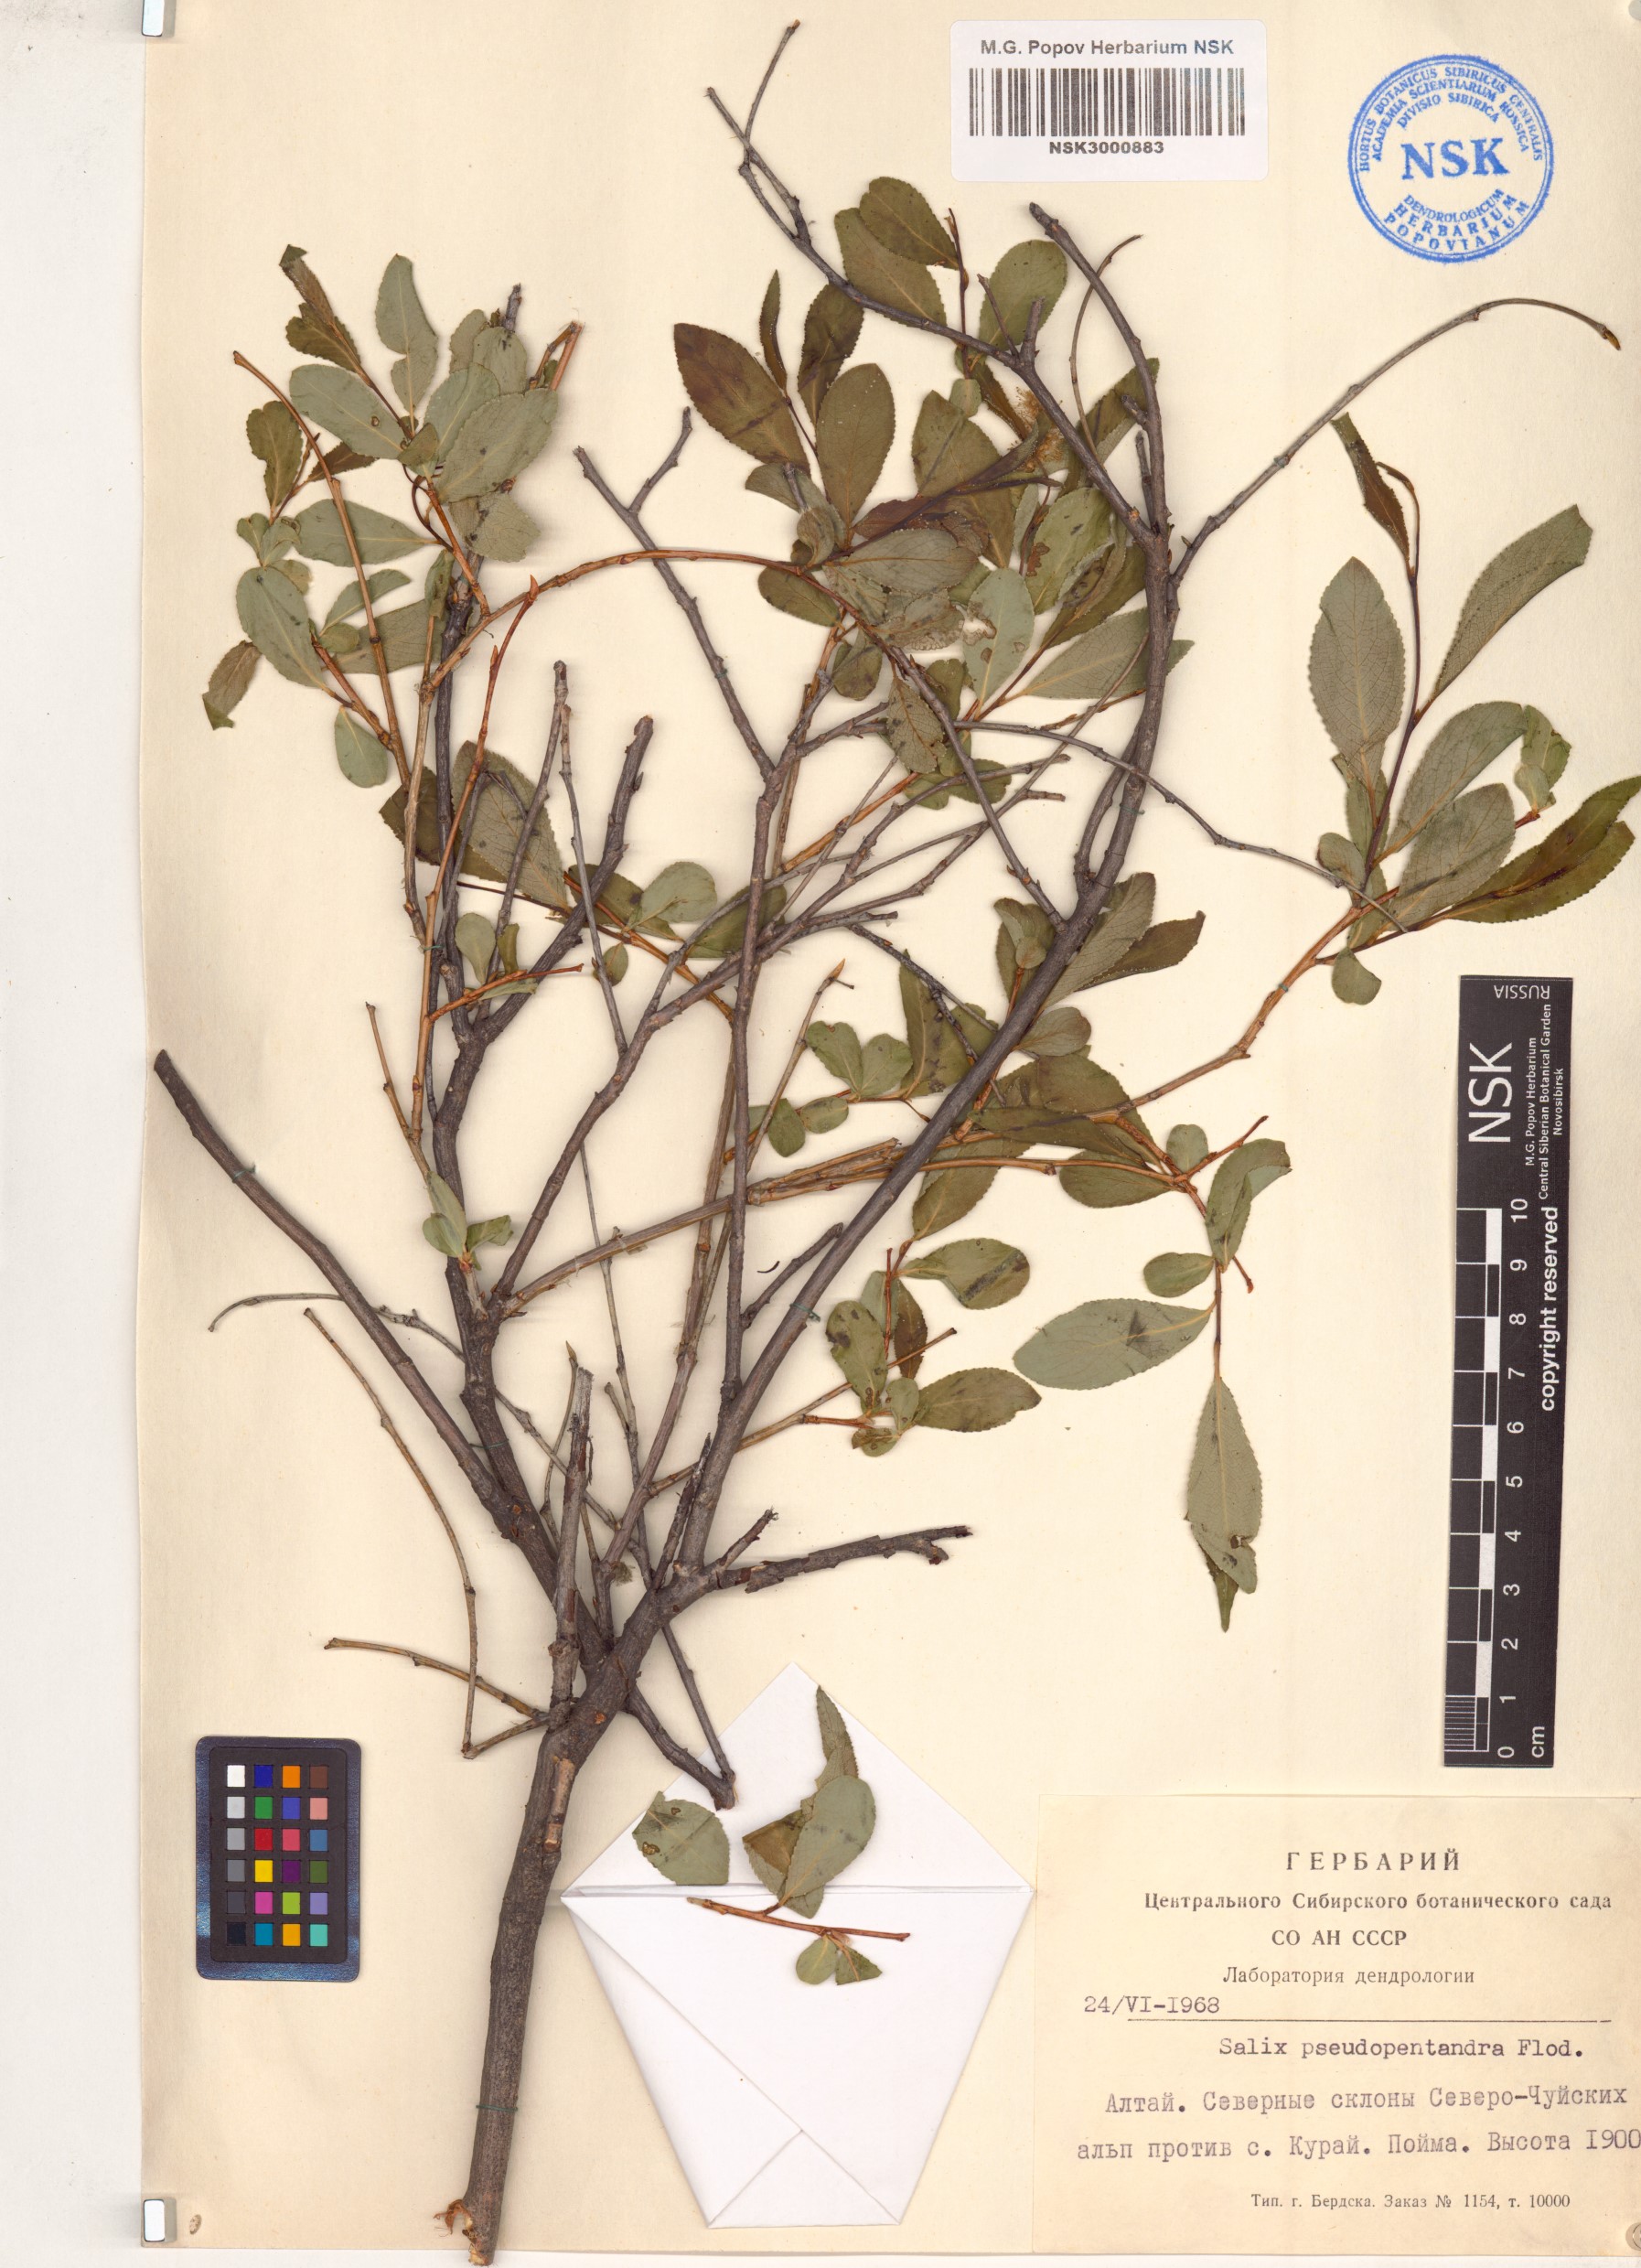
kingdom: Plantae
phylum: Tracheophyta
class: Magnoliopsida
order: Malpighiales
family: Salicaceae
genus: Salix
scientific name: Salix pseudopentandra
